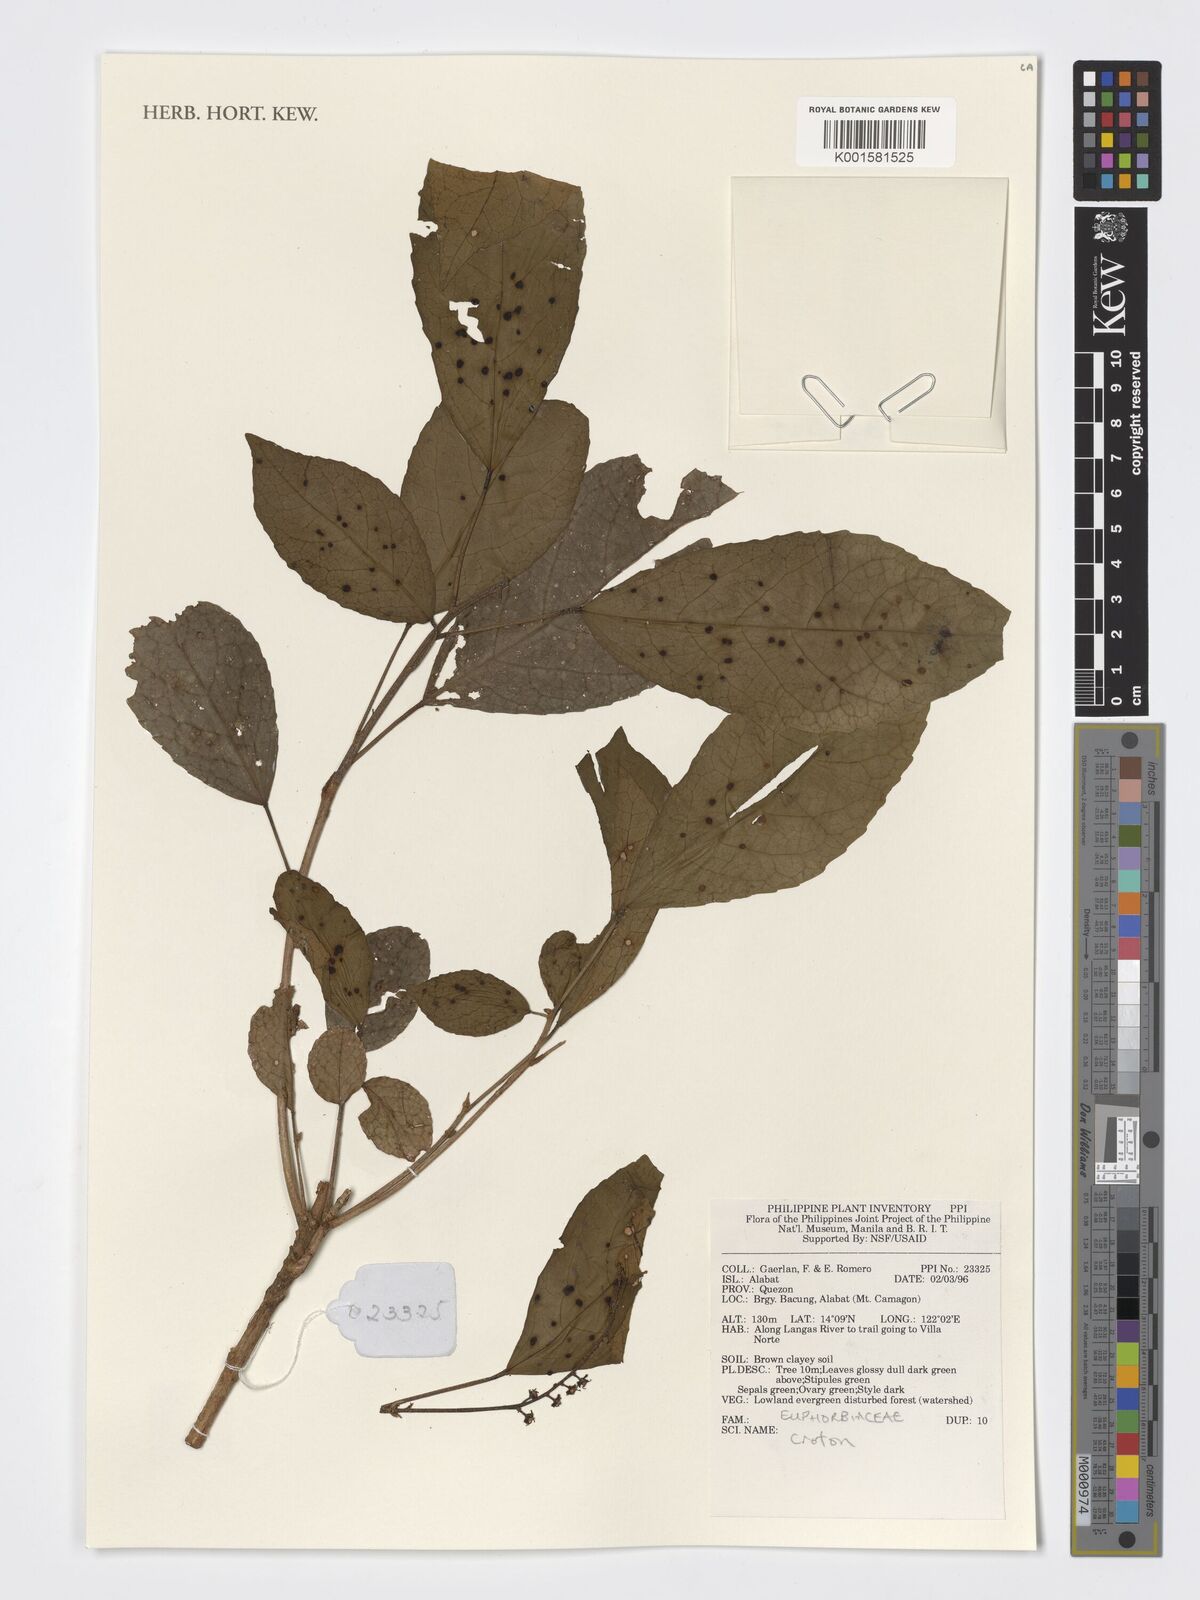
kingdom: Plantae
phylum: Tracheophyta
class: Magnoliopsida
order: Malpighiales
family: Euphorbiaceae
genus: Croton
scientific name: Croton
